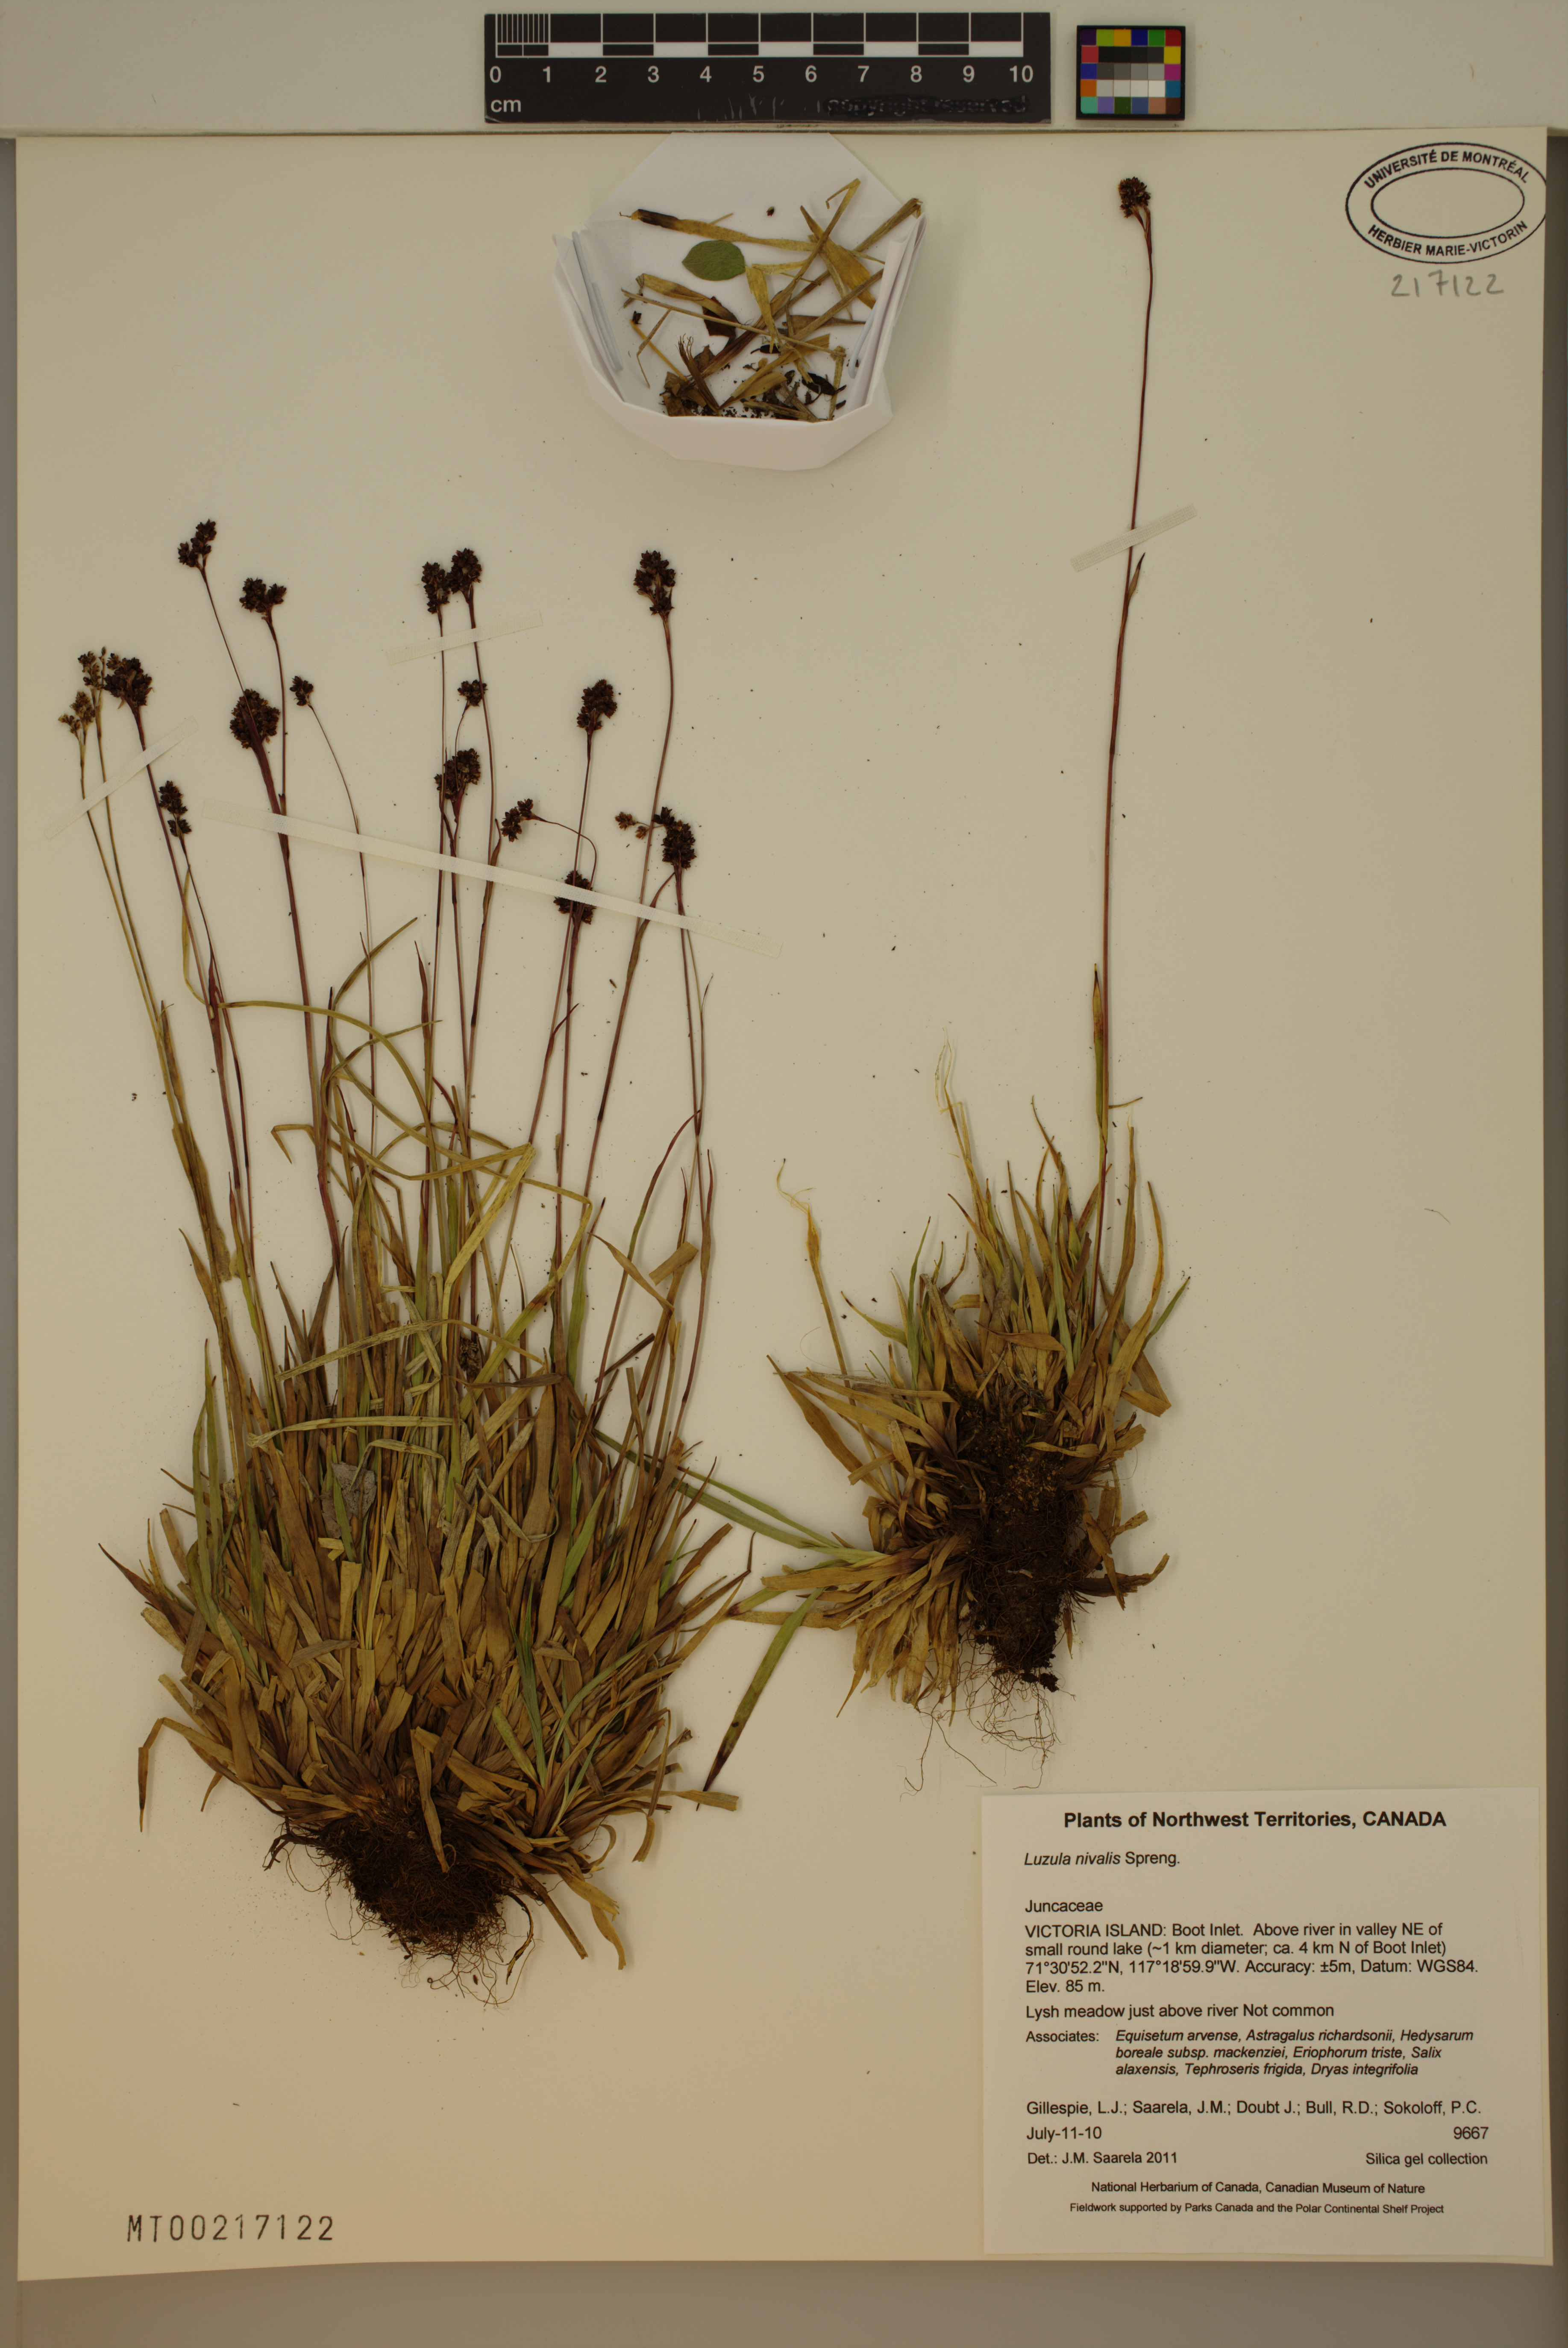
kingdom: Plantae
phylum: Tracheophyta
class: Liliopsida
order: Poales
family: Juncaceae
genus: Luzula
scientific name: Luzula nivalis
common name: Arctic woodrush
